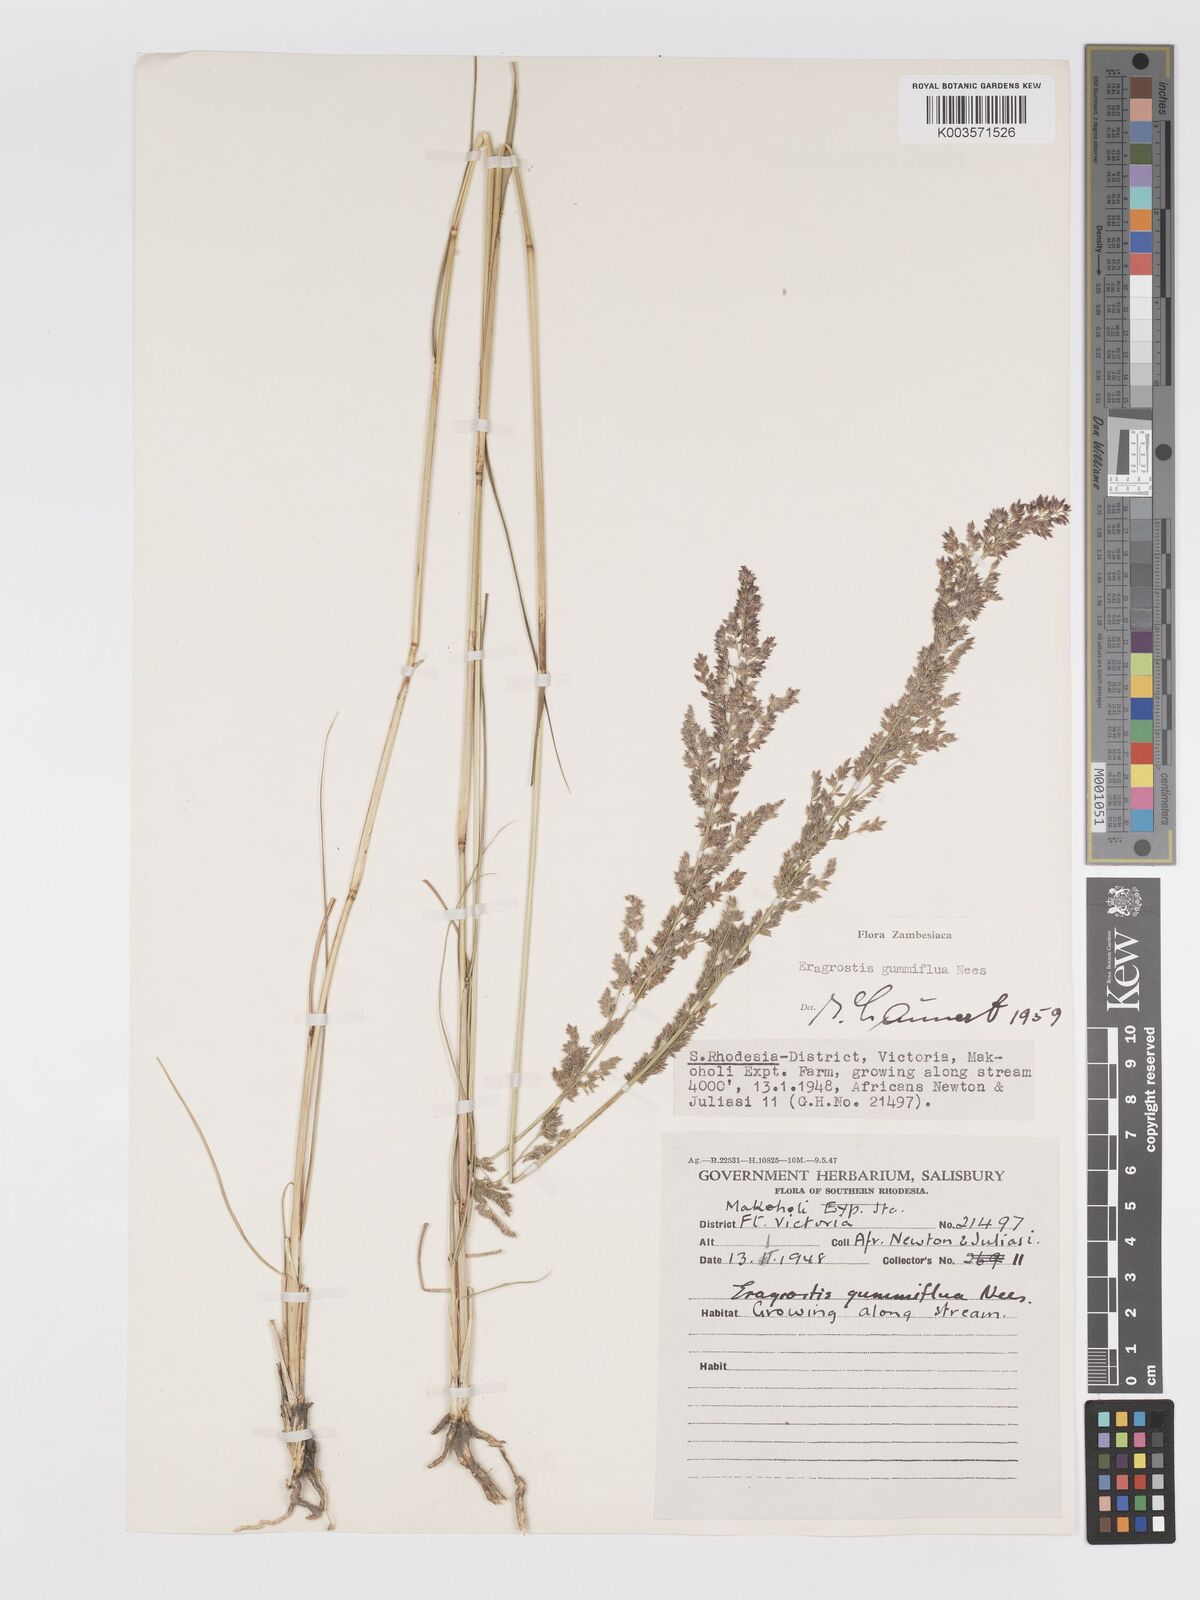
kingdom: Plantae
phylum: Tracheophyta
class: Liliopsida
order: Poales
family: Poaceae
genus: Eragrostis
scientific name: Eragrostis gummiflua
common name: Gum grass
